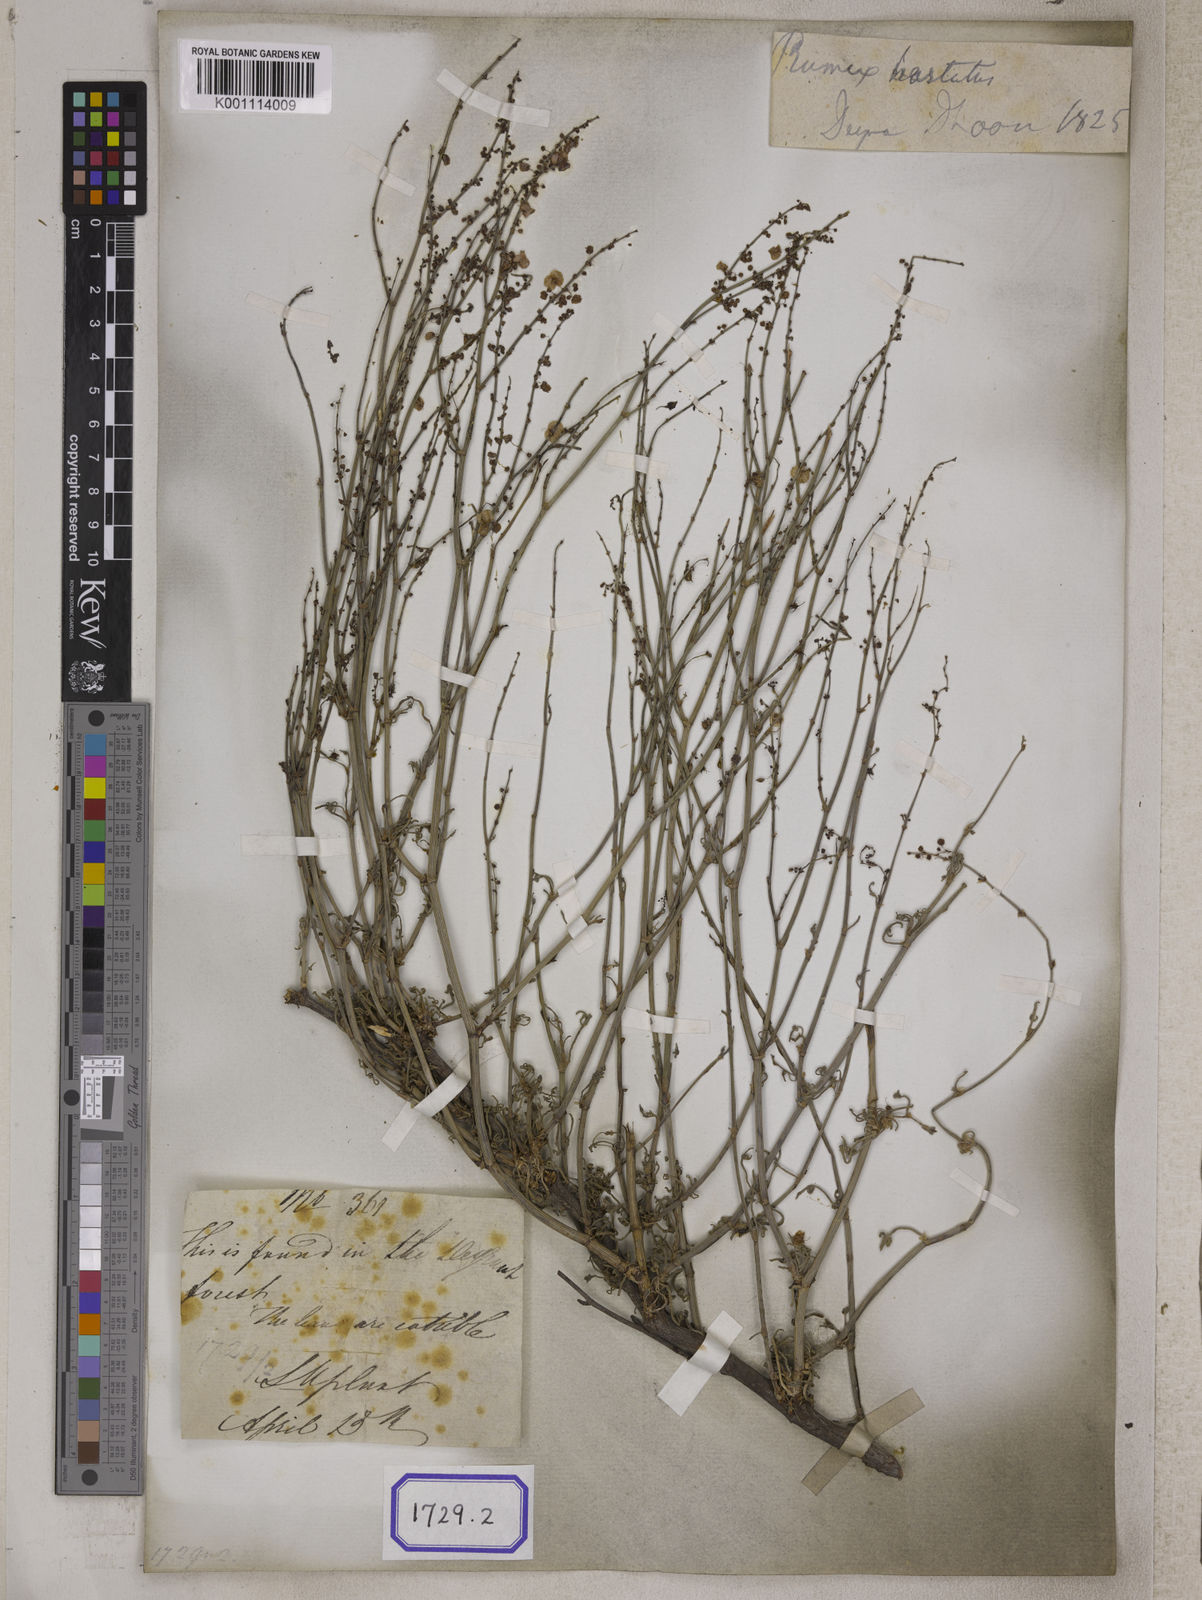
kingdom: Plantae
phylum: Tracheophyta
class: Magnoliopsida
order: Caryophyllales
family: Polygonaceae
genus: Rumex
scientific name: Rumex hastatus
